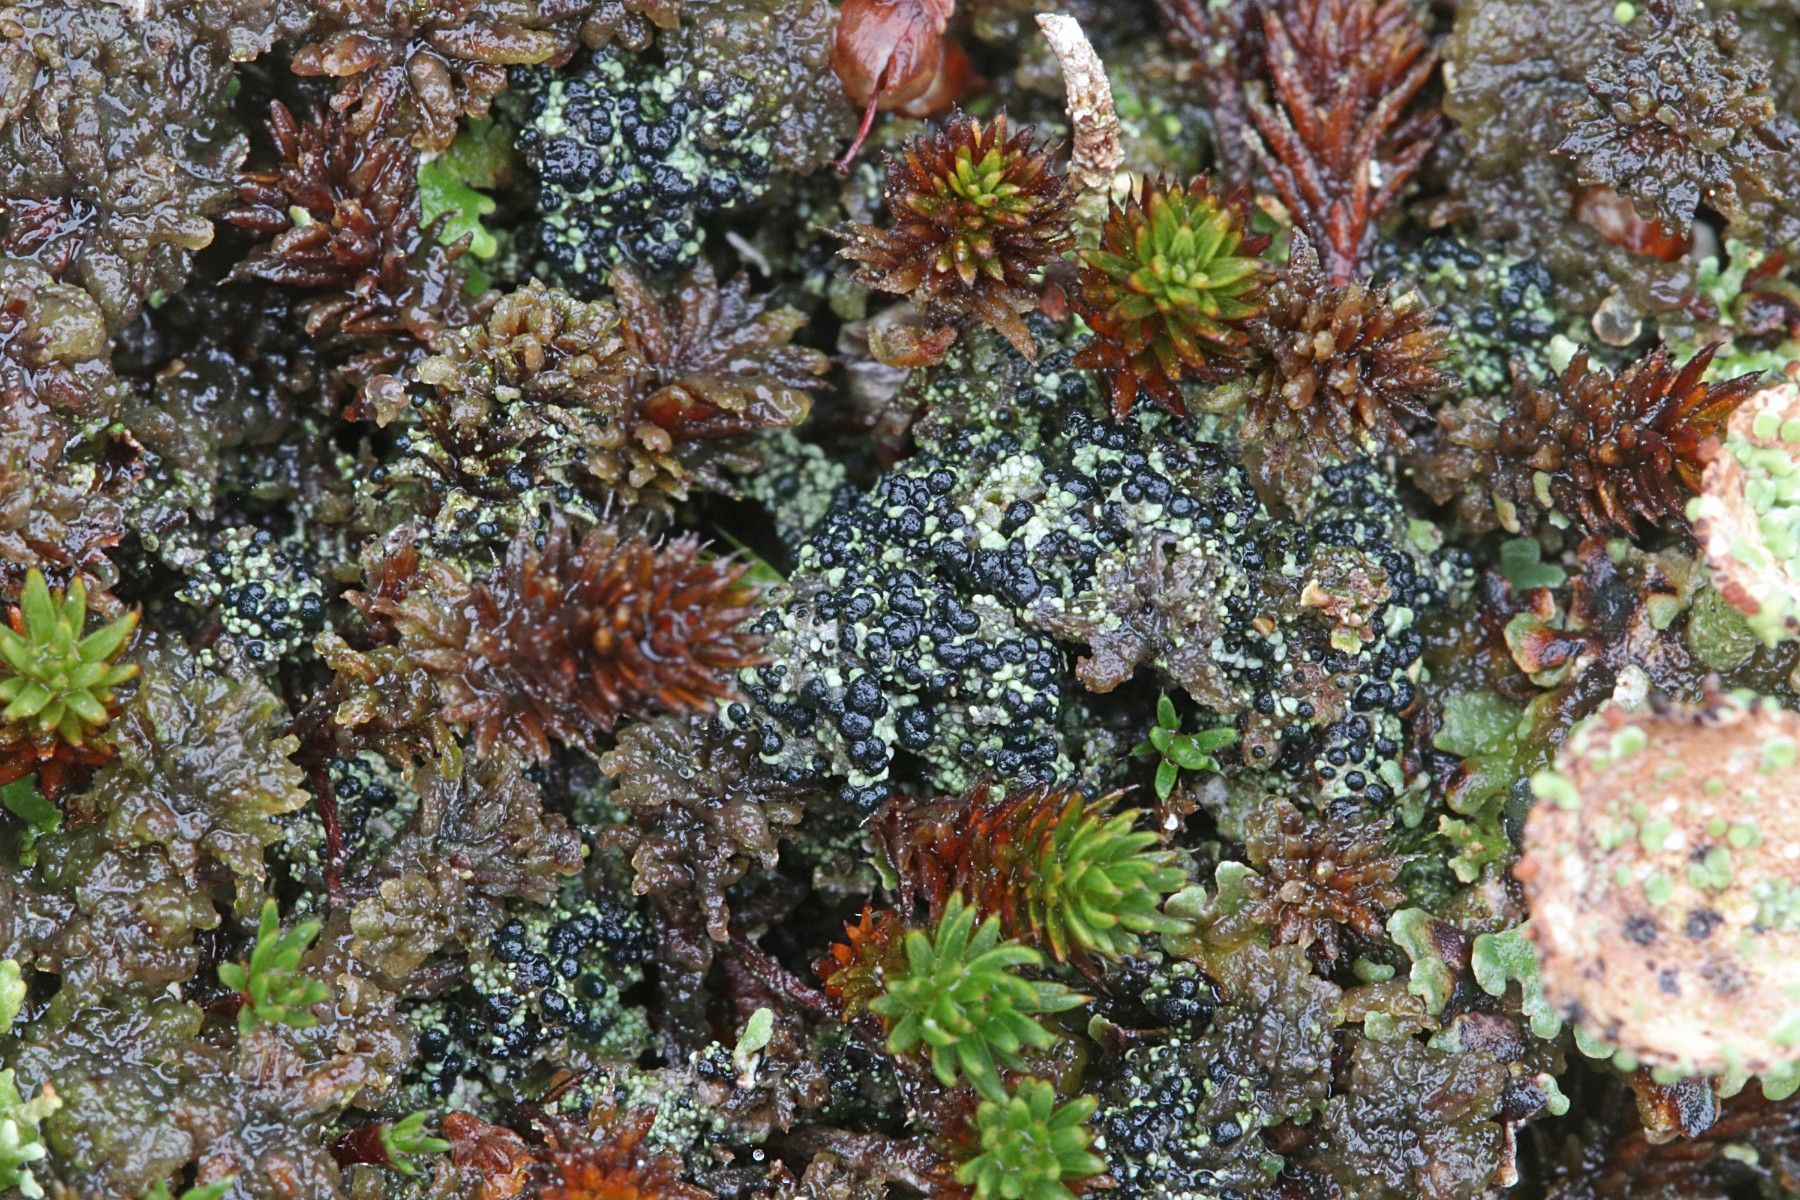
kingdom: Fungi
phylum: Ascomycota
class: Lecanoromycetes
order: Lecanorales
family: Byssolomataceae
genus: Micarea
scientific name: Micarea lignaria
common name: tørve-knaplav
